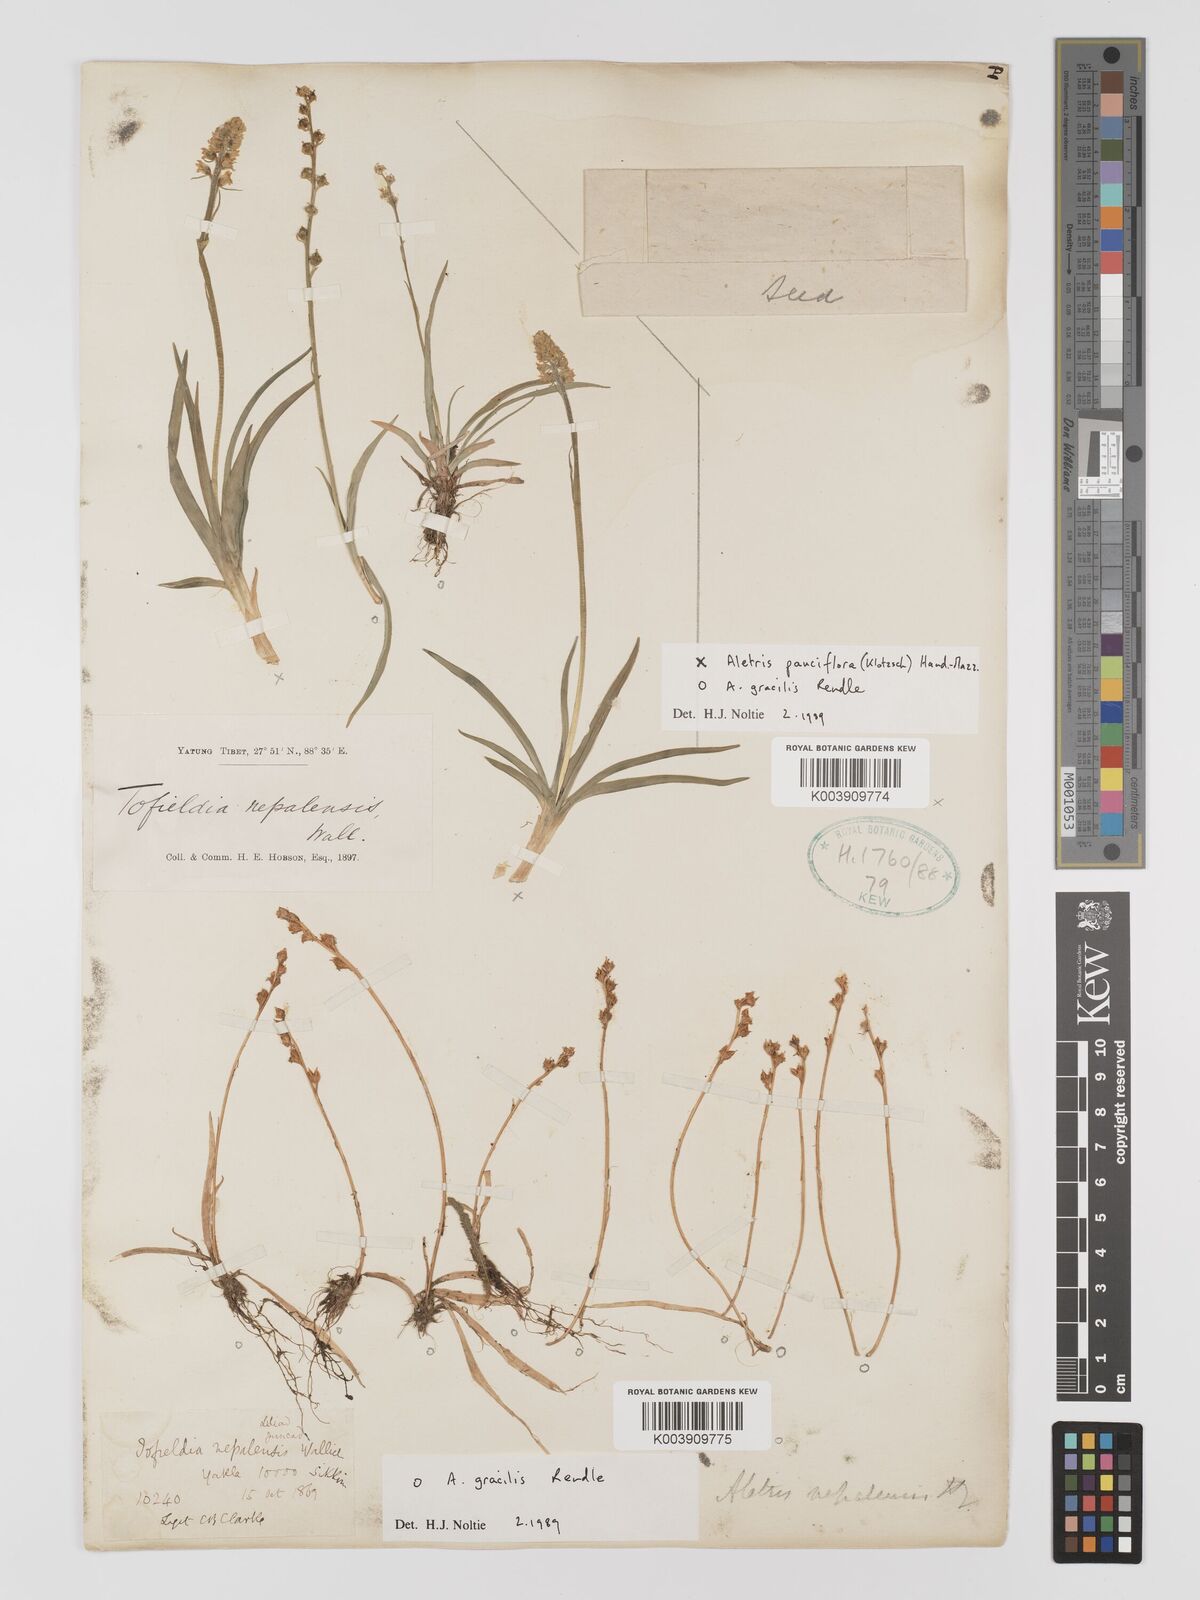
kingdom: Plantae
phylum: Tracheophyta
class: Liliopsida
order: Dioscoreales
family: Nartheciaceae
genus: Aletris
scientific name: Aletris gracilis
